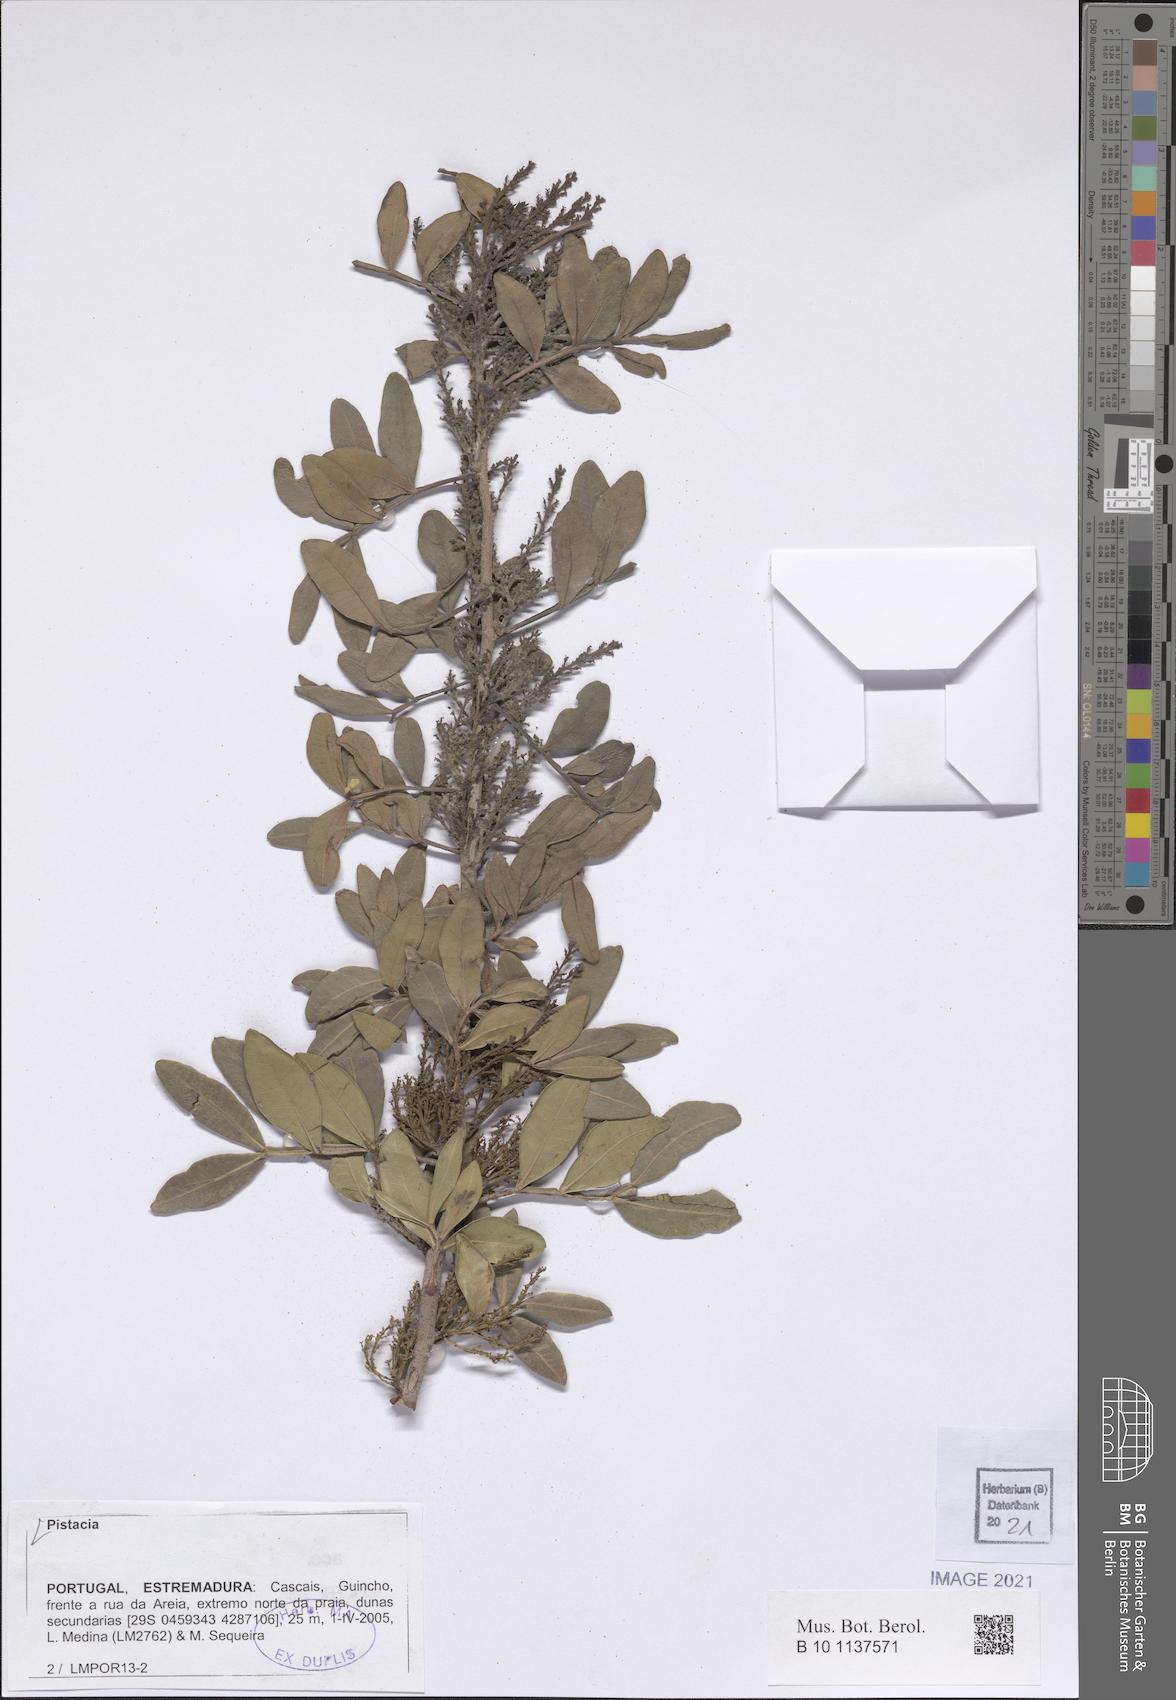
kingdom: Plantae
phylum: Tracheophyta
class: Magnoliopsida
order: Sapindales
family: Anacardiaceae
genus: Pistacia
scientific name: Pistacia
